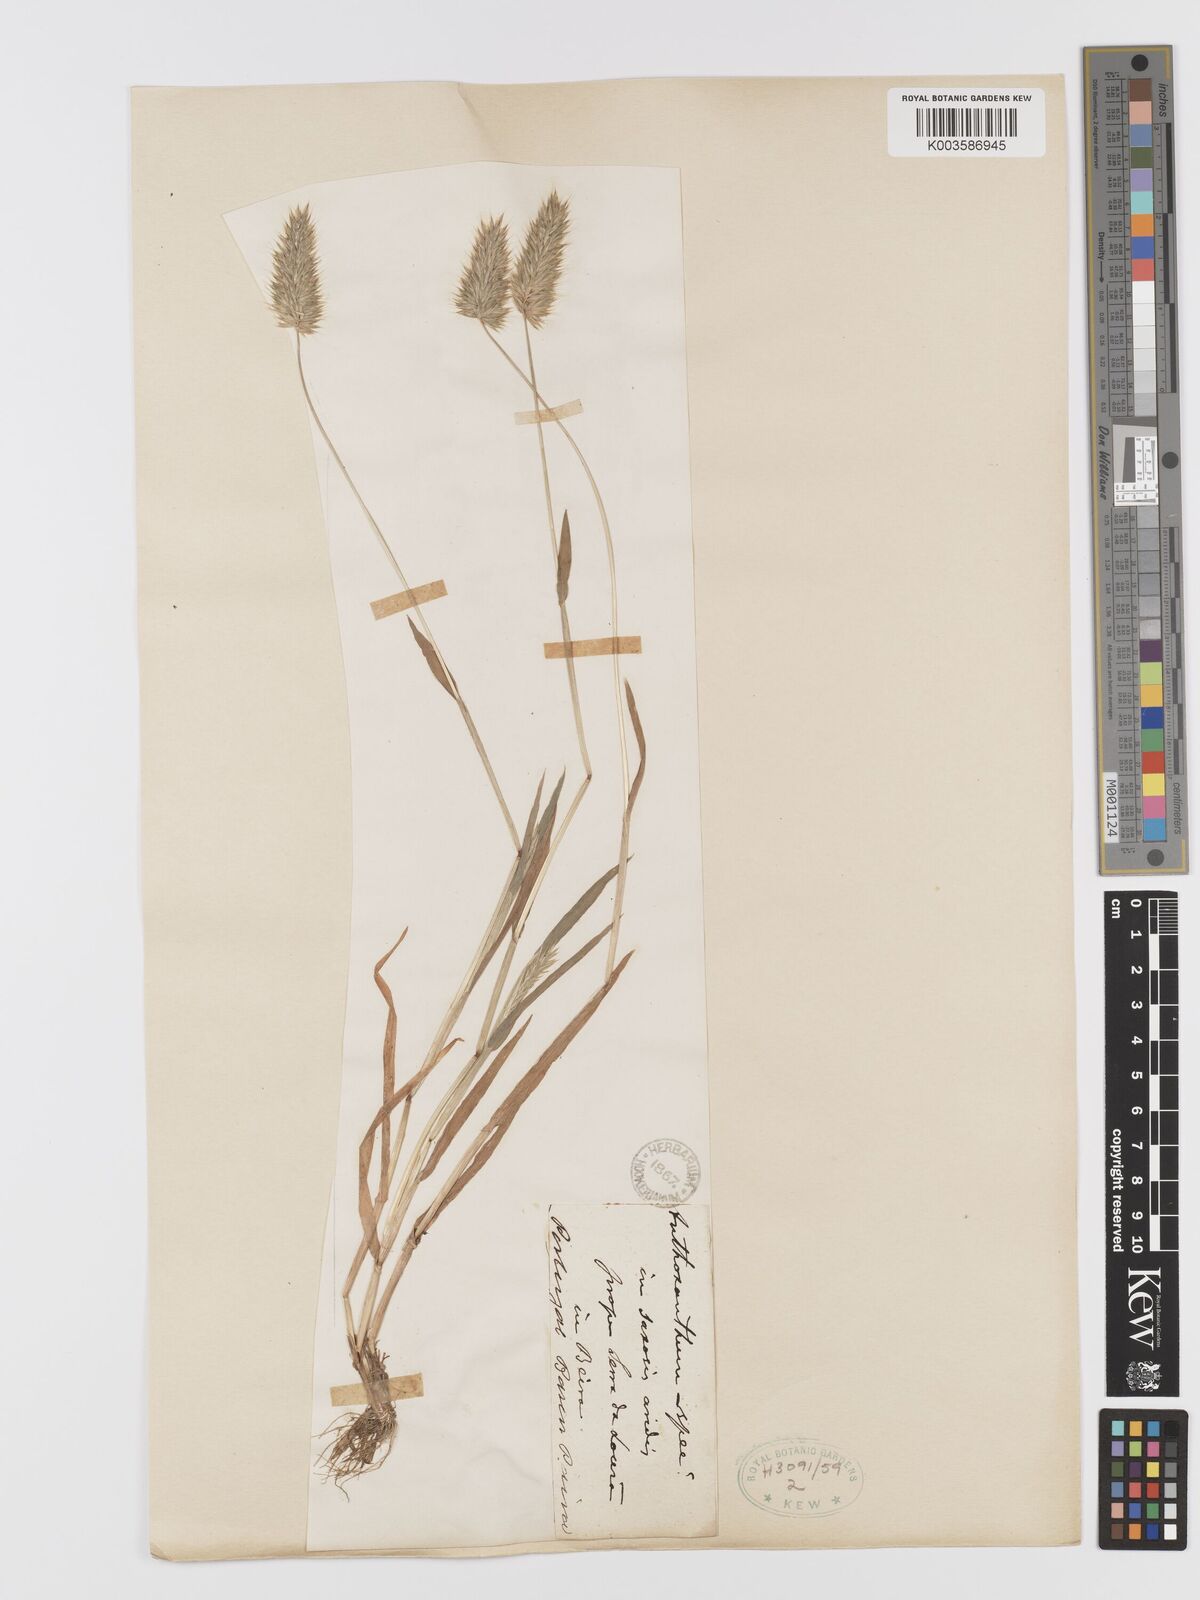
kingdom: Plantae
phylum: Tracheophyta
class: Liliopsida
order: Poales
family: Poaceae
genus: Anthoxanthum
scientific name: Anthoxanthum
